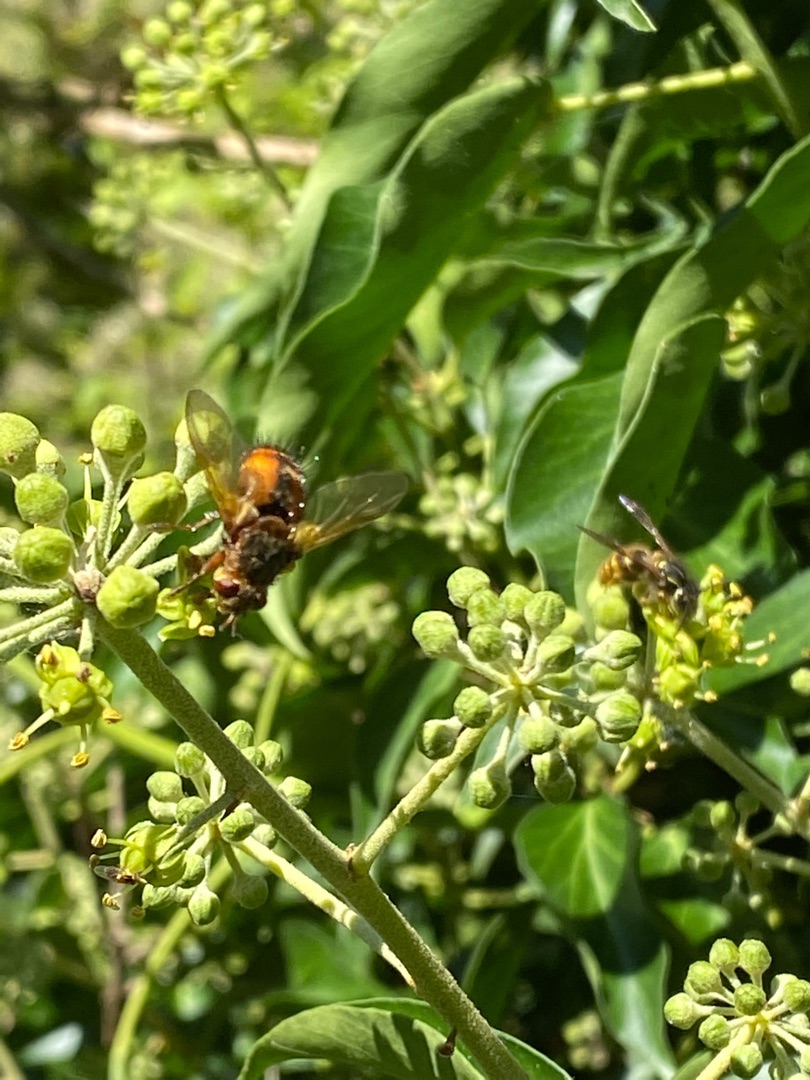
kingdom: Animalia
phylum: Arthropoda
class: Insecta
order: Diptera
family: Tachinidae
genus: Tachina
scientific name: Tachina fera
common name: Mellemfluen oskar
